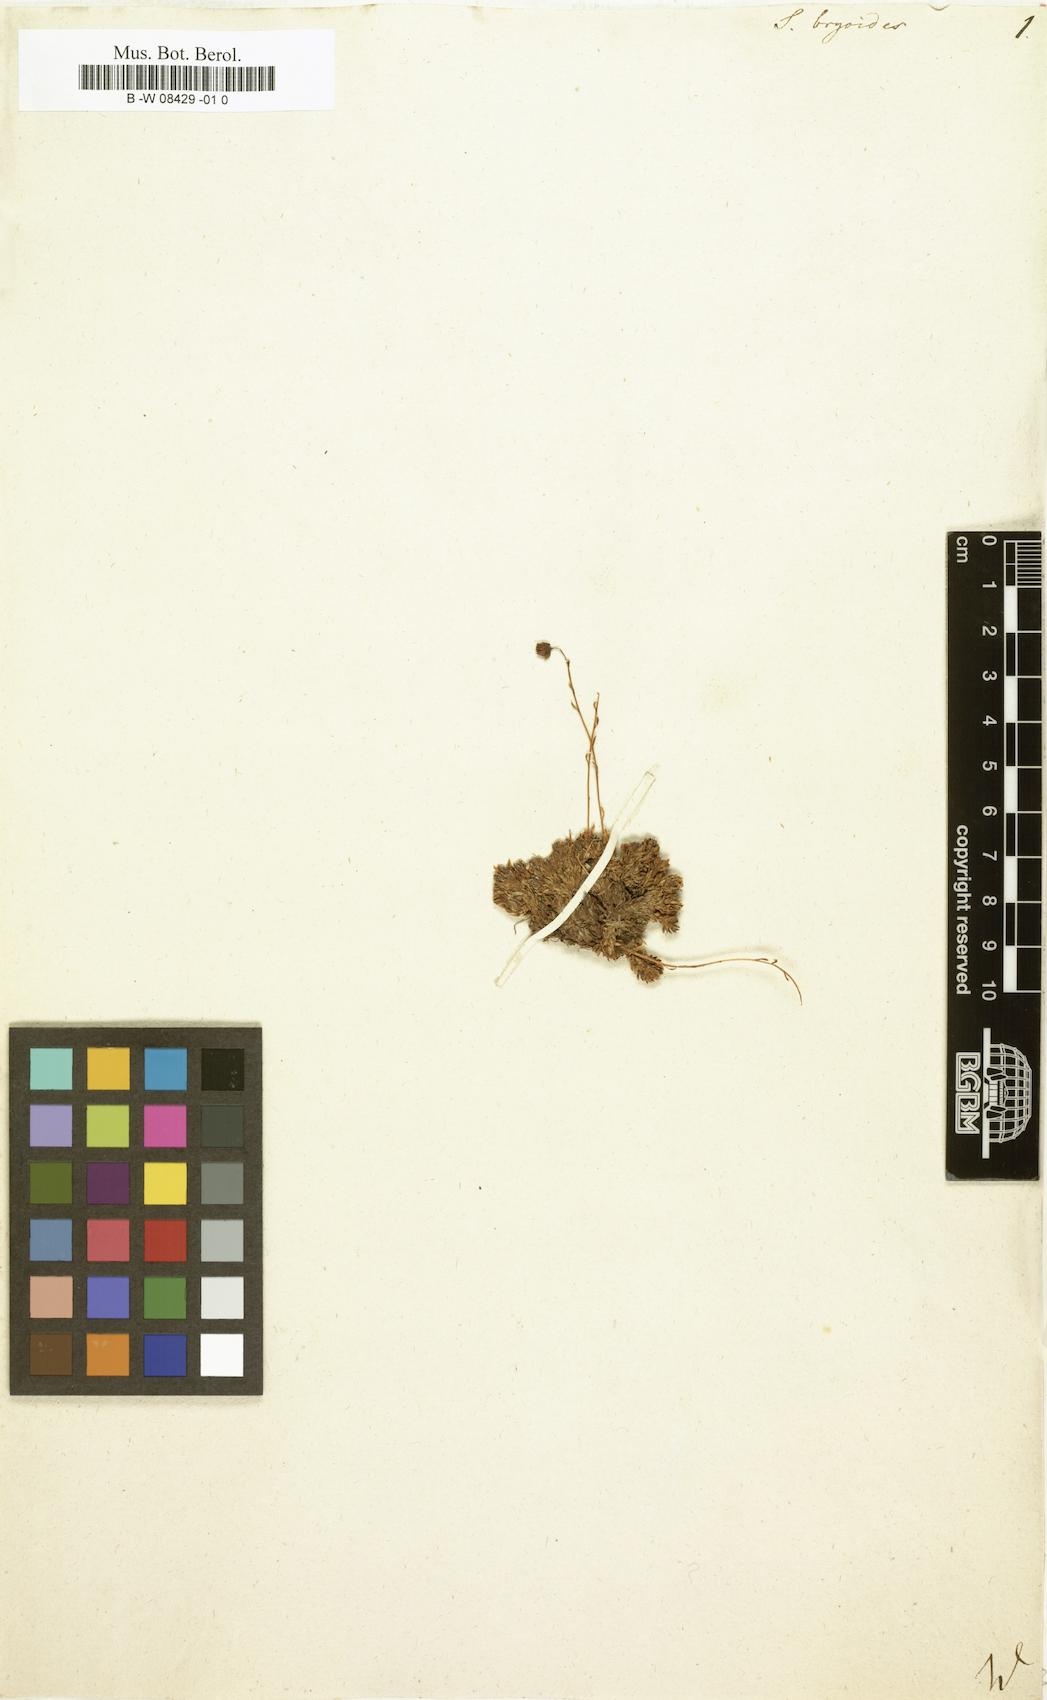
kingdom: Plantae
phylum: Tracheophyta
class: Magnoliopsida
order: Saxifragales
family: Saxifragaceae
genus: Saxifraga
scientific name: Saxifraga bryoides
